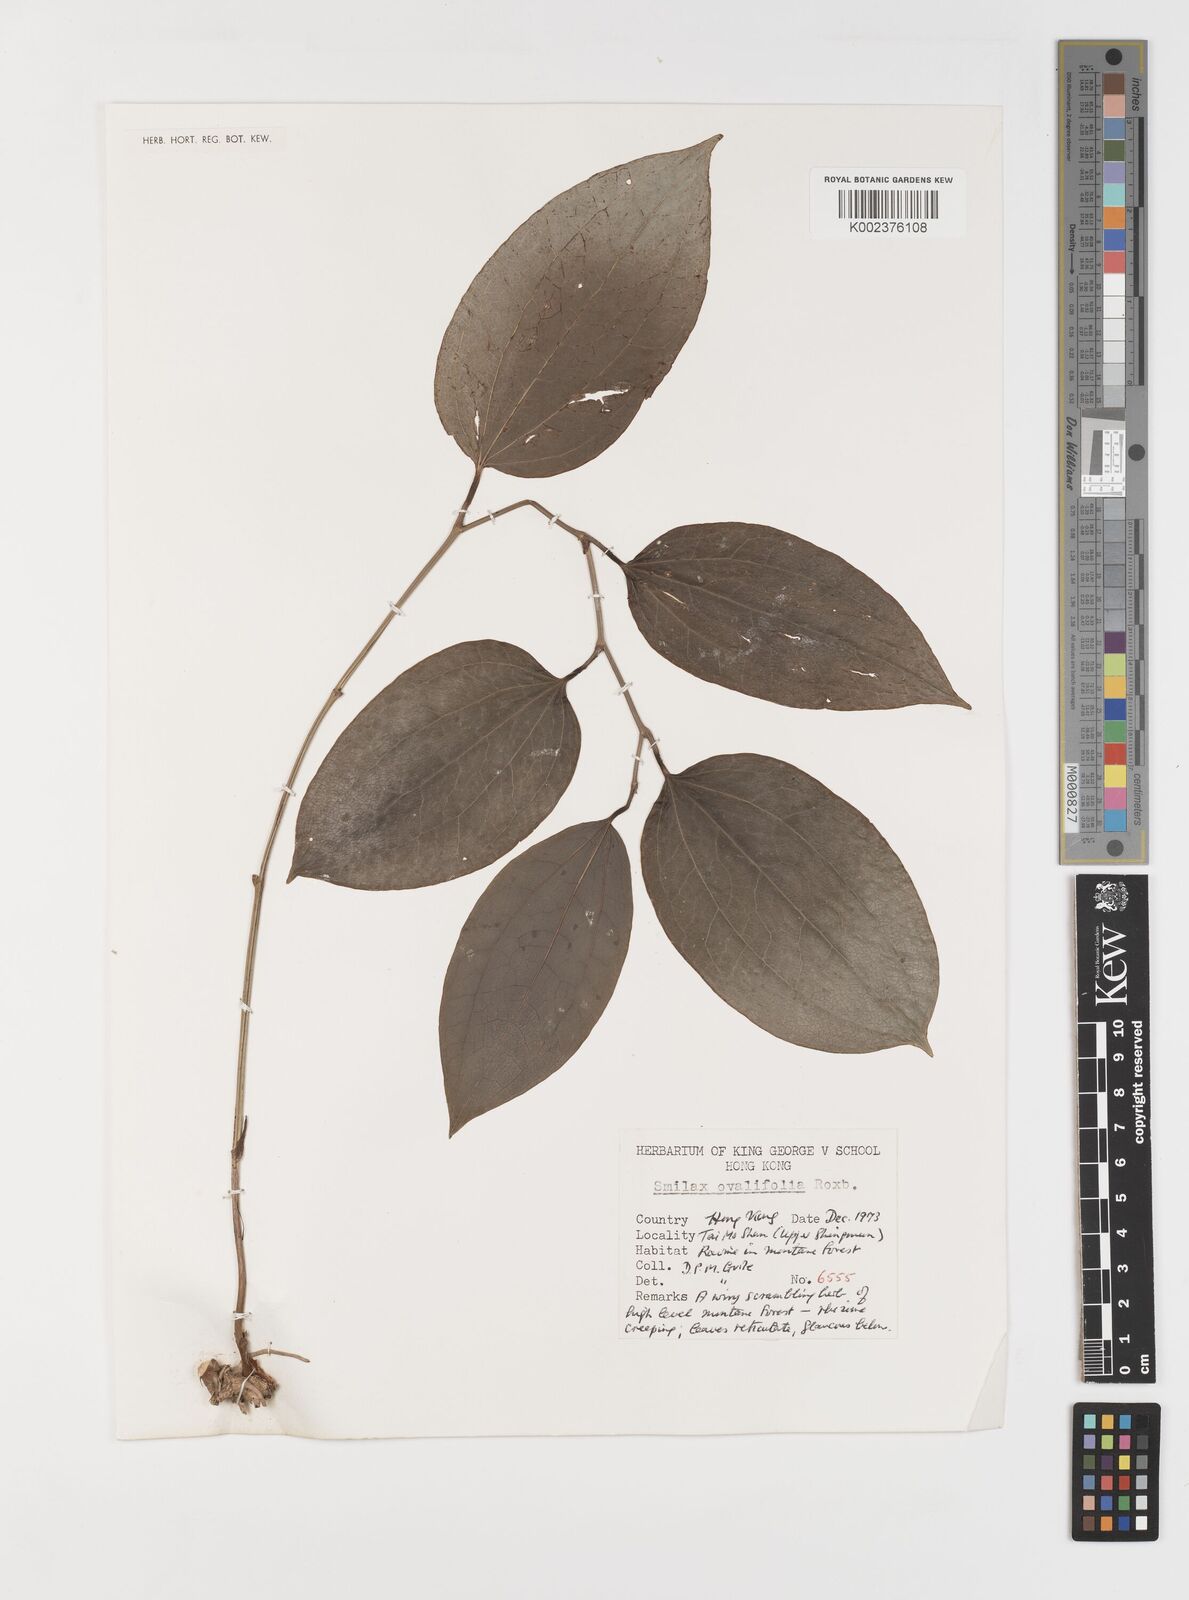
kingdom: Plantae
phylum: Tracheophyta
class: Liliopsida
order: Liliales
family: Smilacaceae
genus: Smilax
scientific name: Smilax ovalifolia
